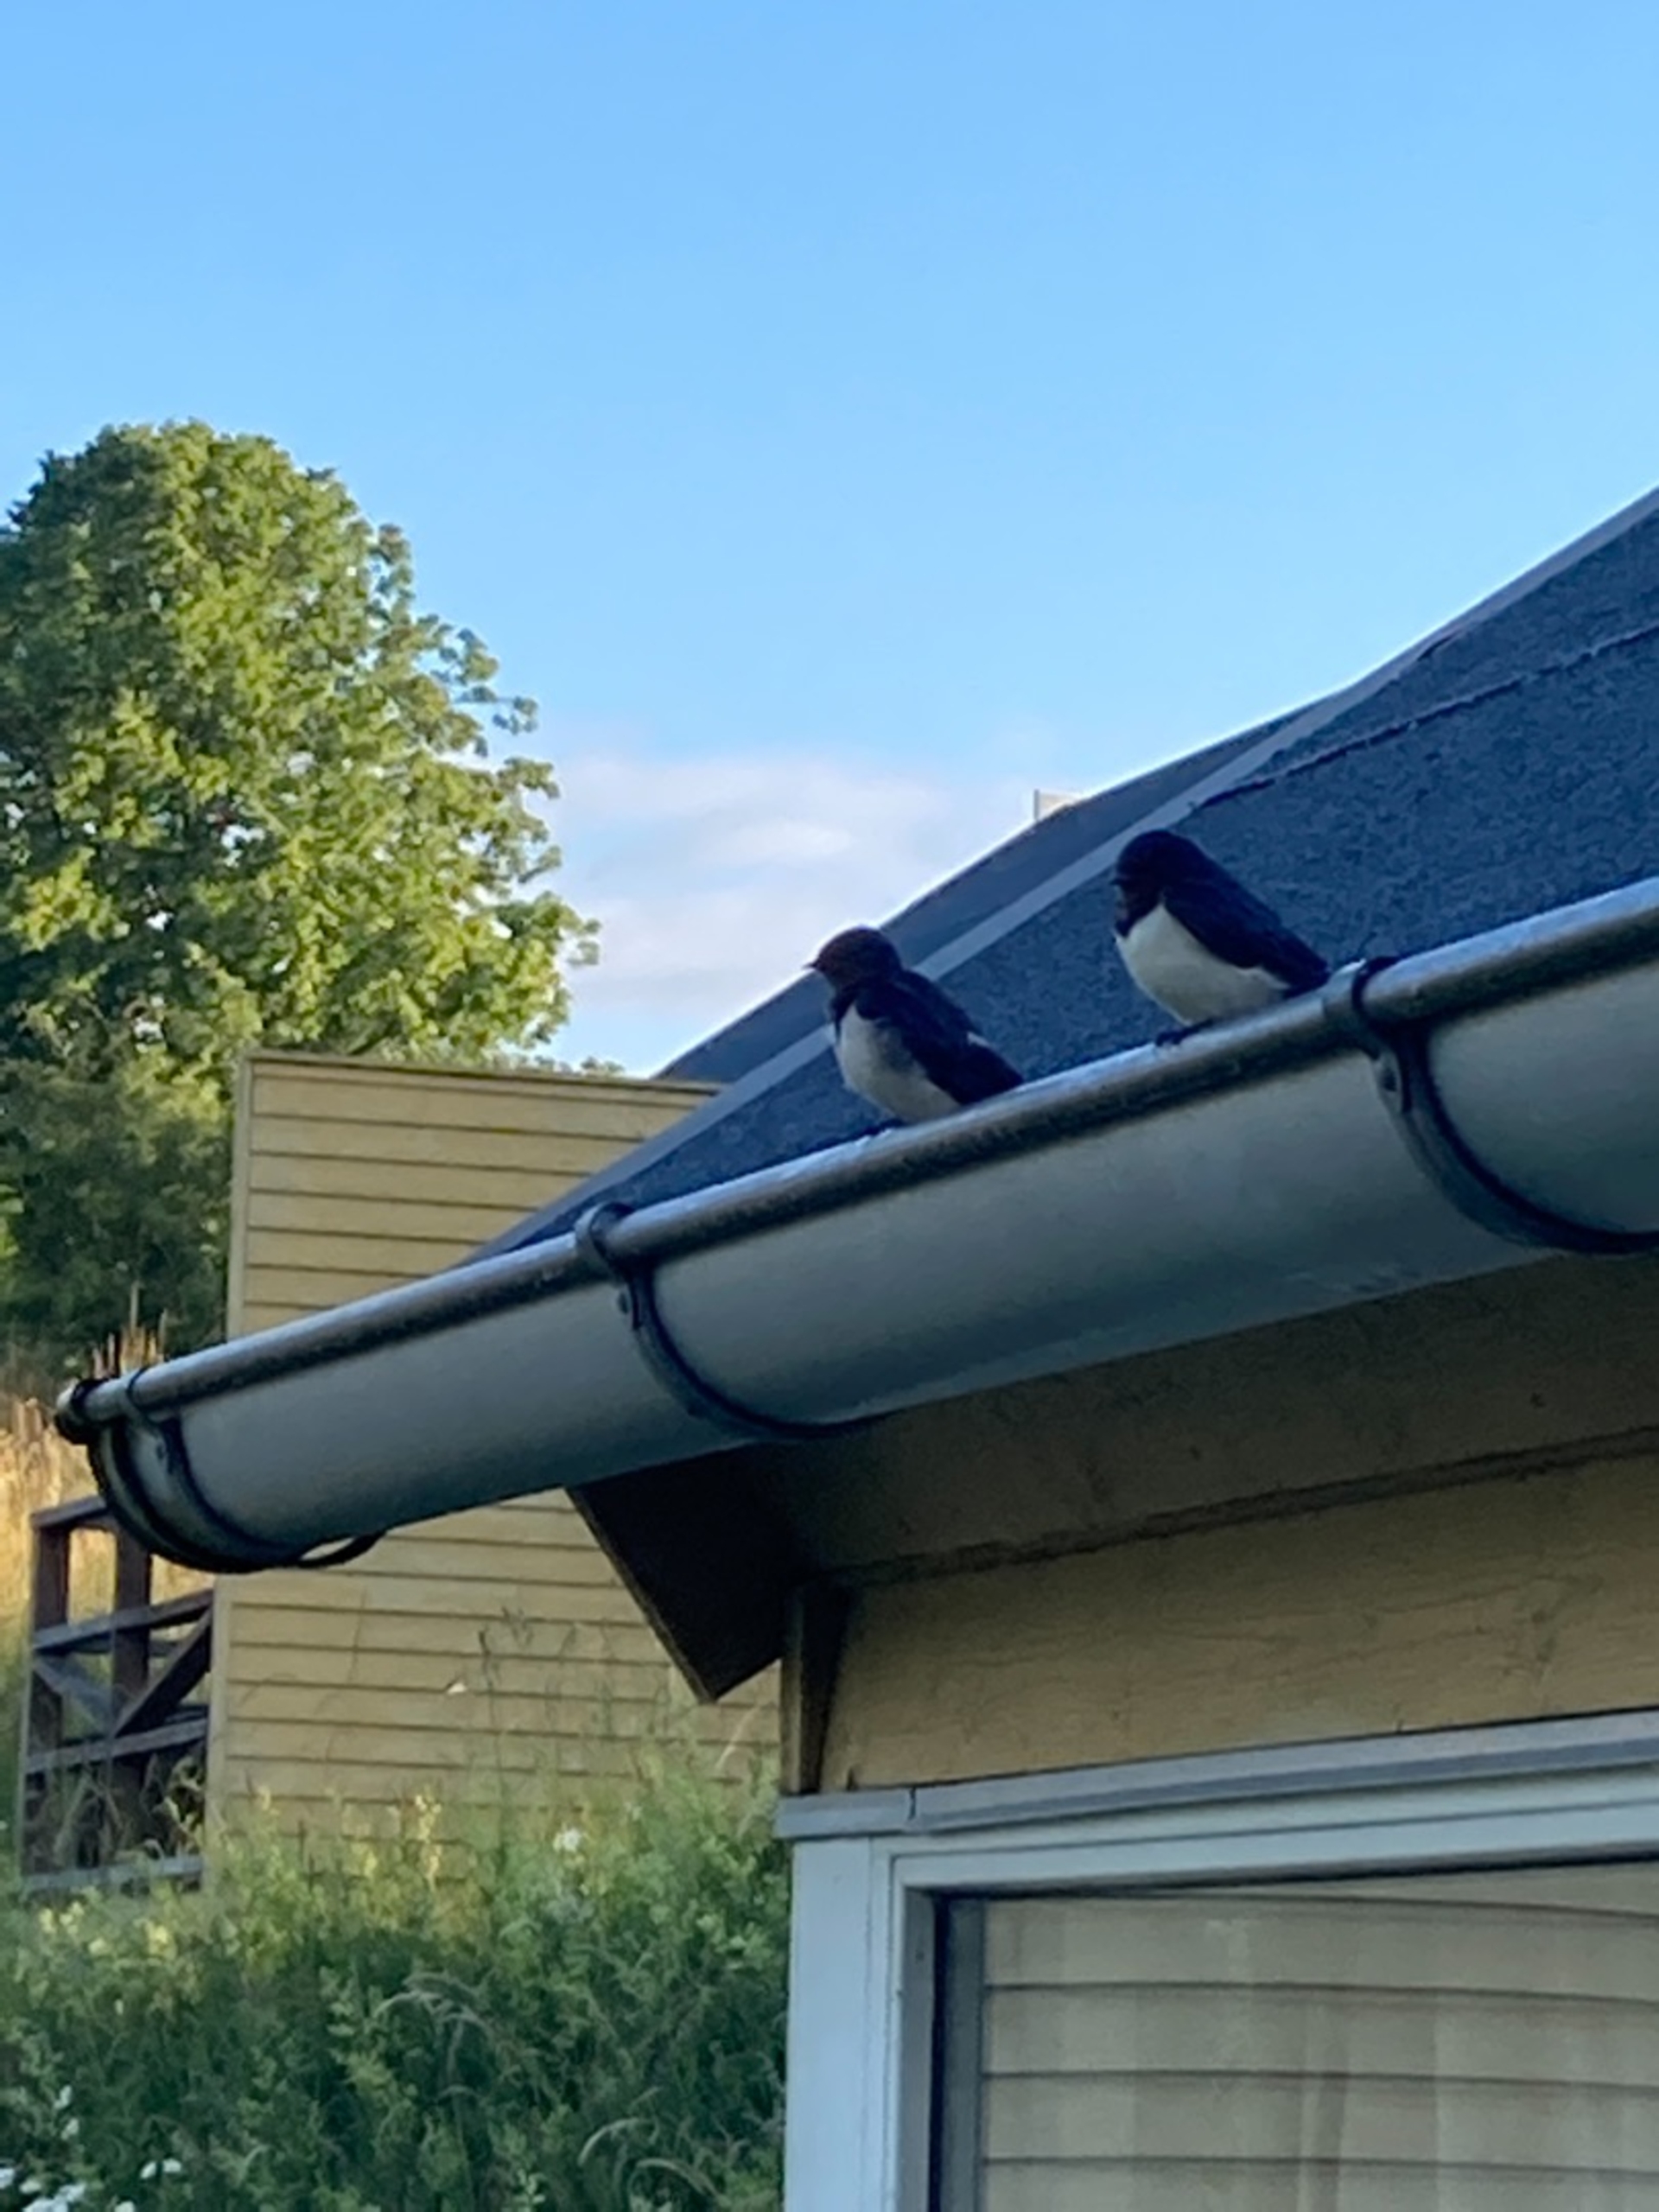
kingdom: Animalia
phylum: Chordata
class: Aves
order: Passeriformes
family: Hirundinidae
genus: Hirundo
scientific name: Hirundo rustica
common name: Landsvale
